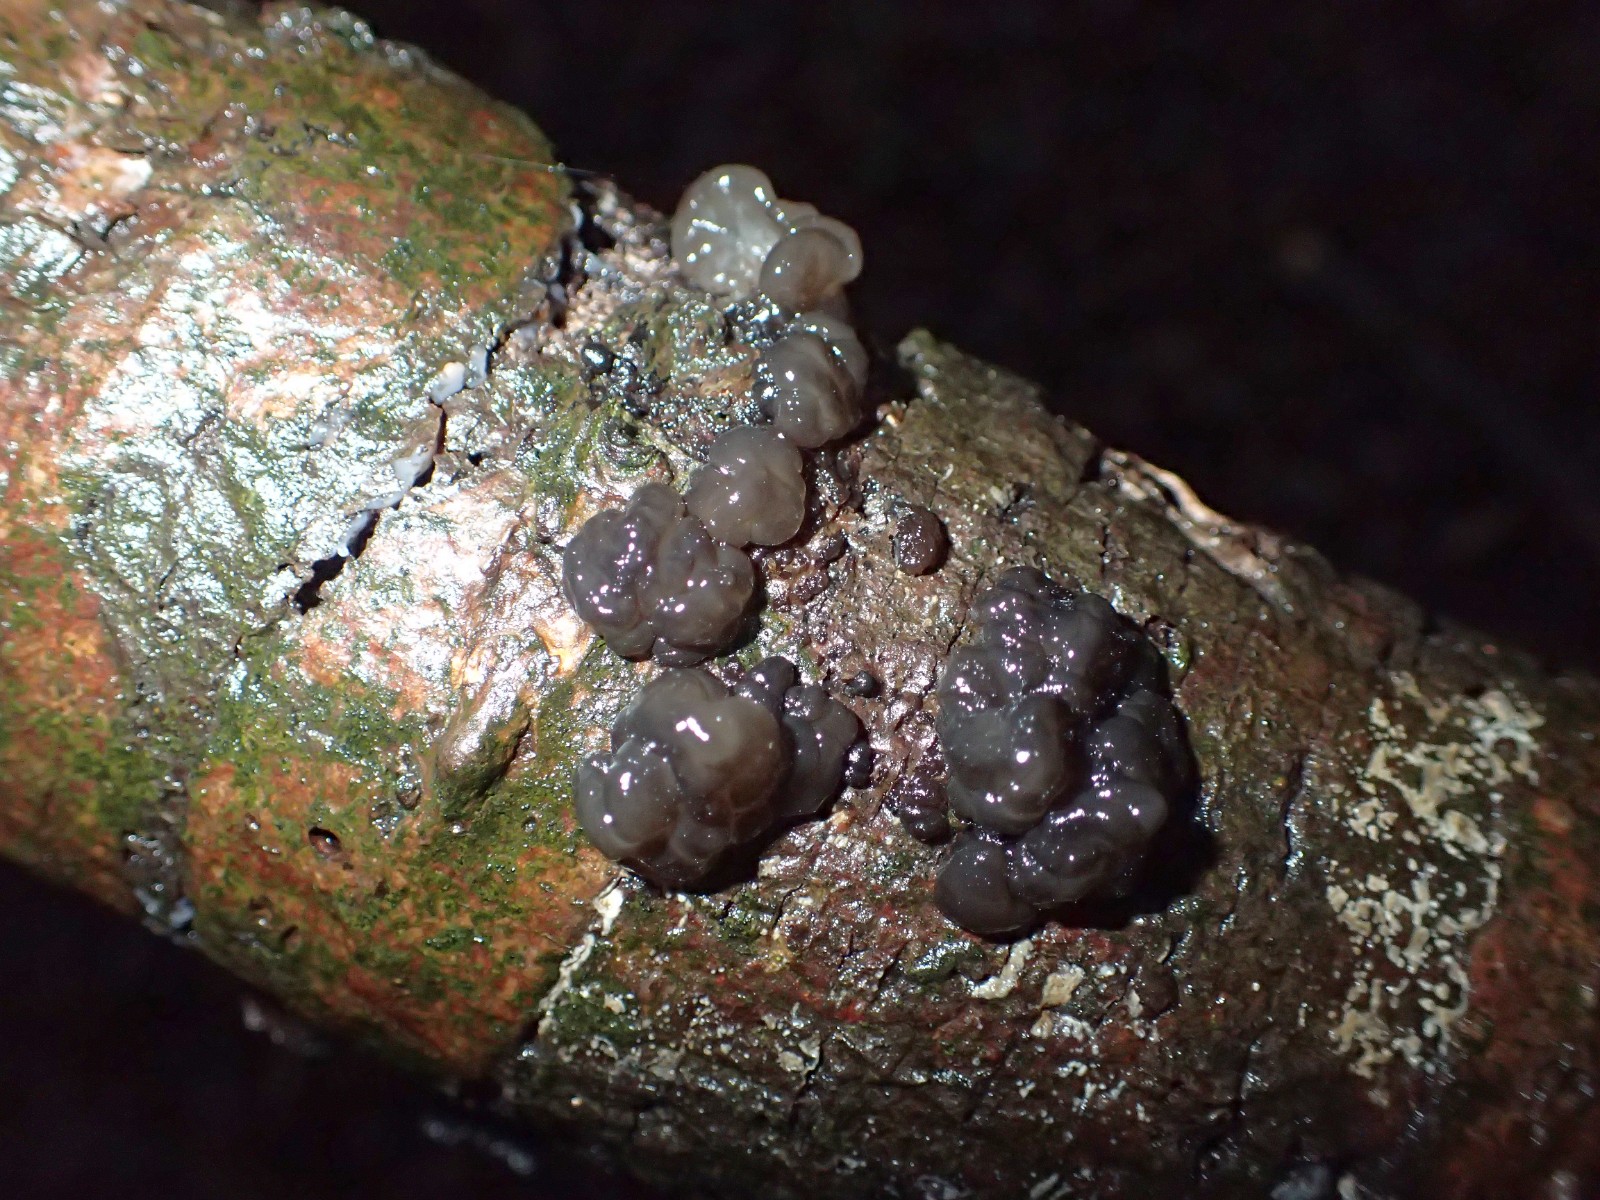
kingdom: Fungi
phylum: Basidiomycota
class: Agaricomycetes
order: Auriculariales
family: Auriculariaceae
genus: Exidia
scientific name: Exidia nigricans
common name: almindelig bævretop
